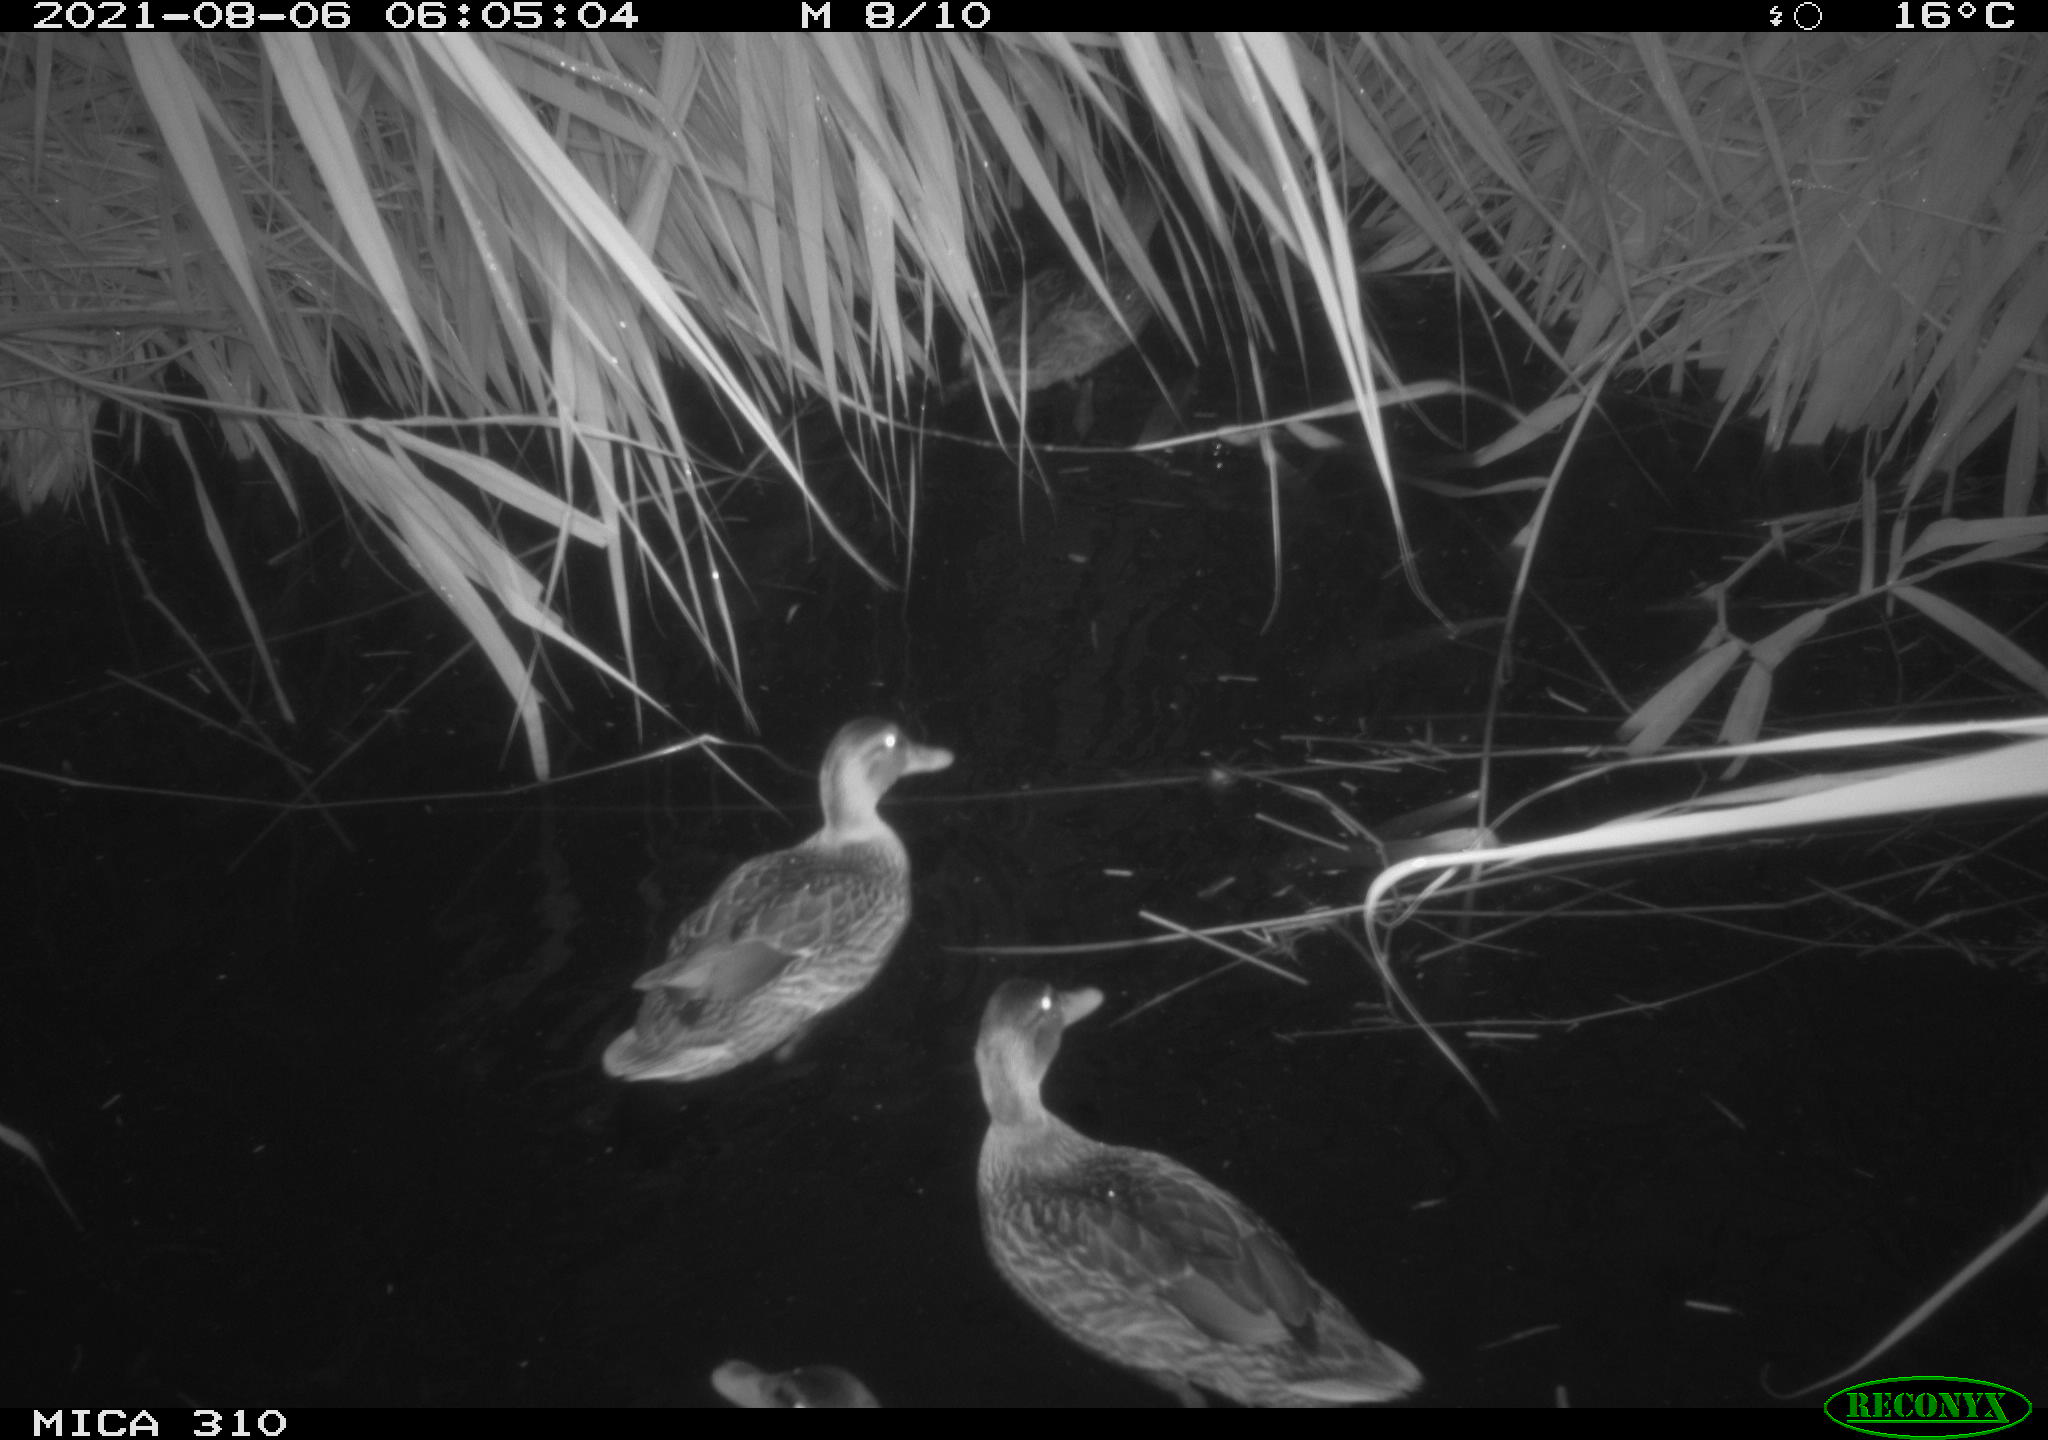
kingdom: Animalia
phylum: Chordata
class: Aves
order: Anseriformes
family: Anatidae
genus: Anas
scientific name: Anas platyrhynchos
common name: Mallard
